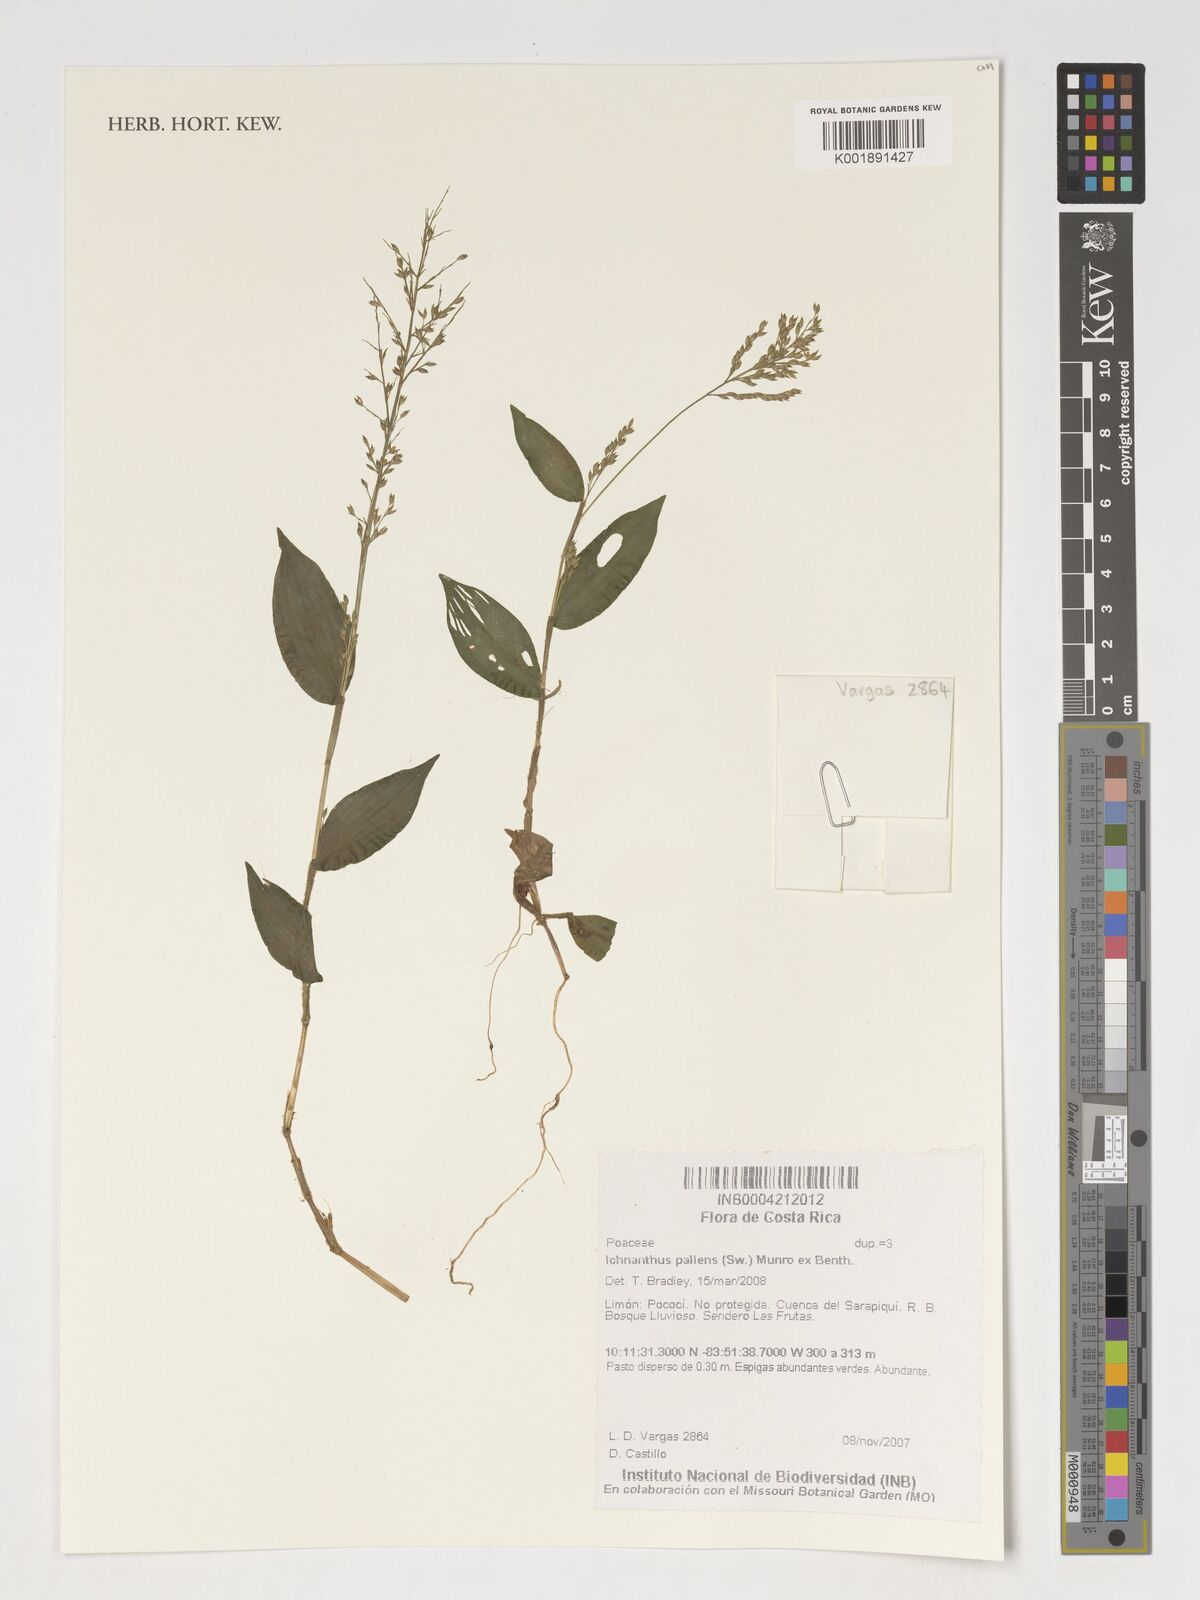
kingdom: Plantae
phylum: Tracheophyta
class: Liliopsida
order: Poales
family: Poaceae
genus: Ichnanthus
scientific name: Ichnanthus pallens
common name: Water grass
